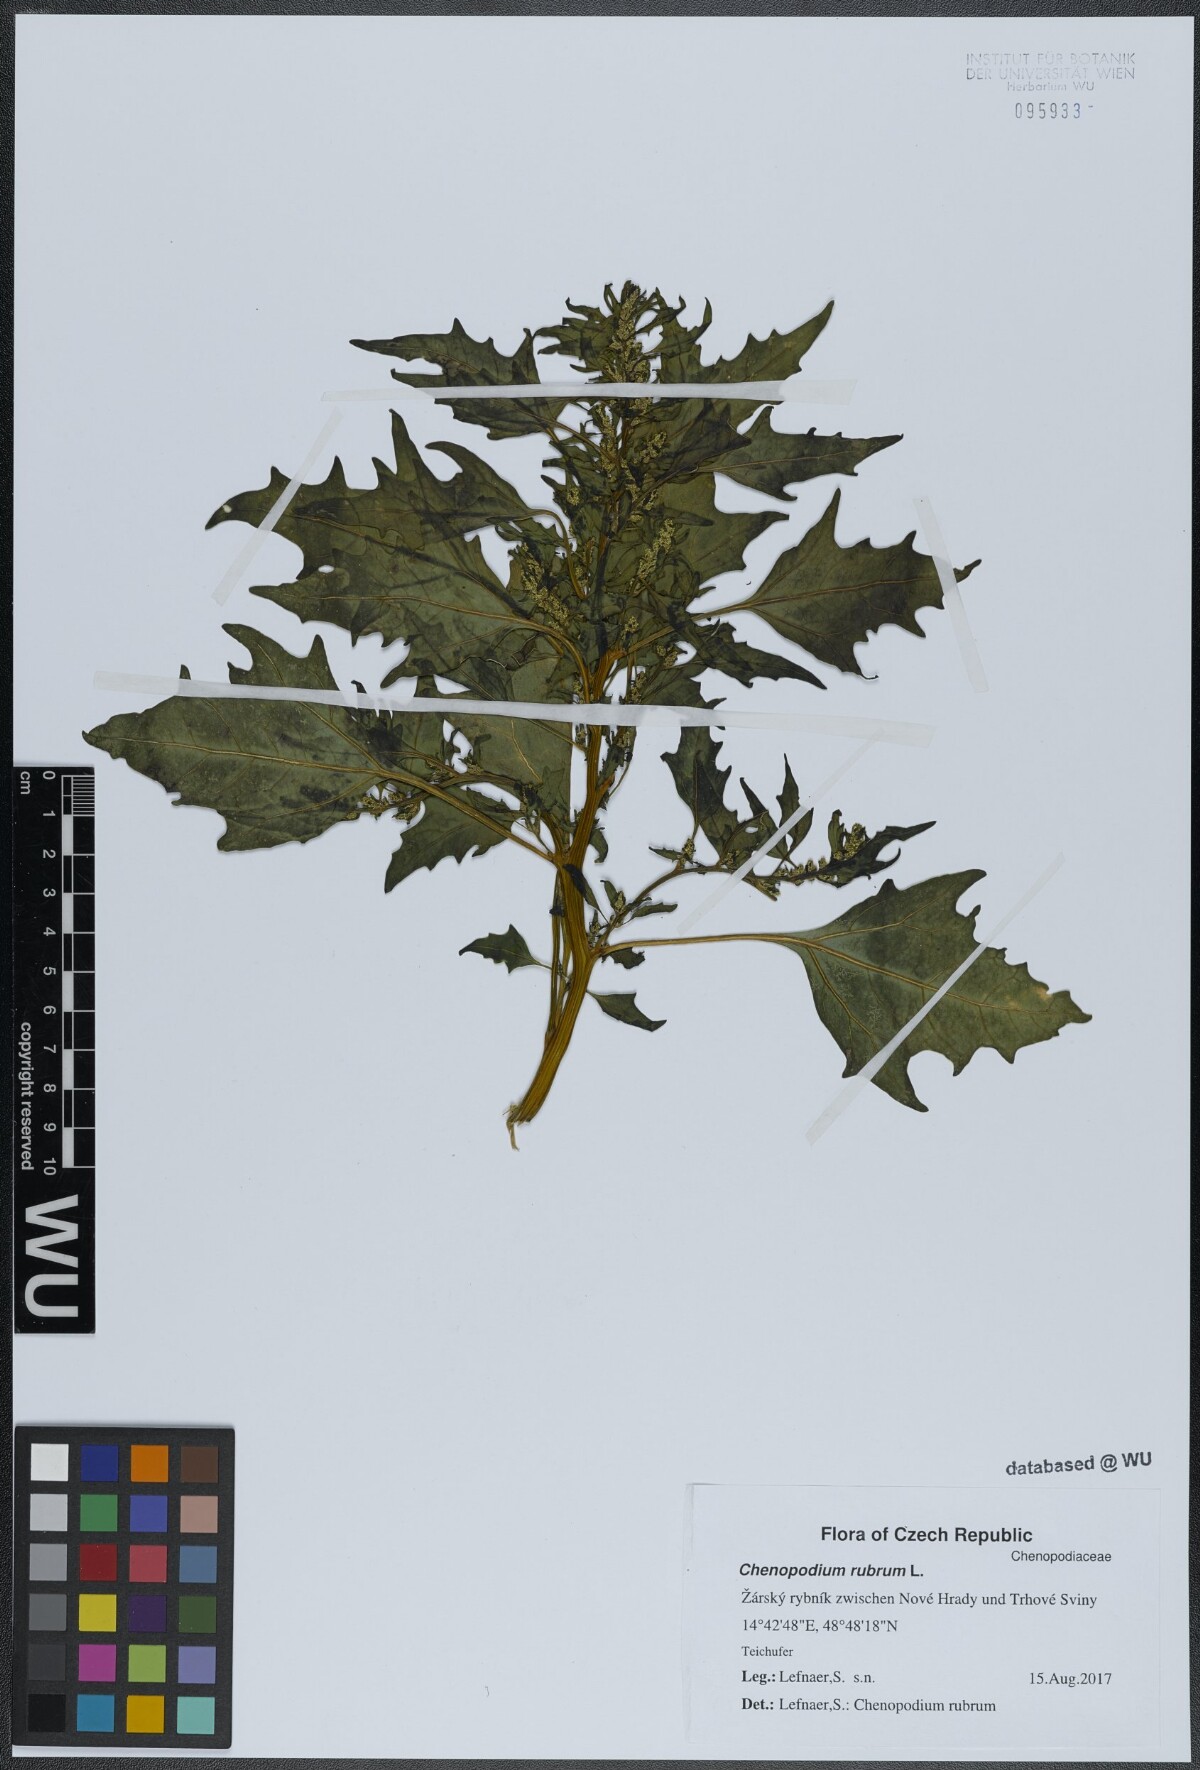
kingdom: Plantae
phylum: Tracheophyta
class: Magnoliopsida
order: Caryophyllales
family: Amaranthaceae
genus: Oxybasis
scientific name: Oxybasis rubra
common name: Red goosefoot
